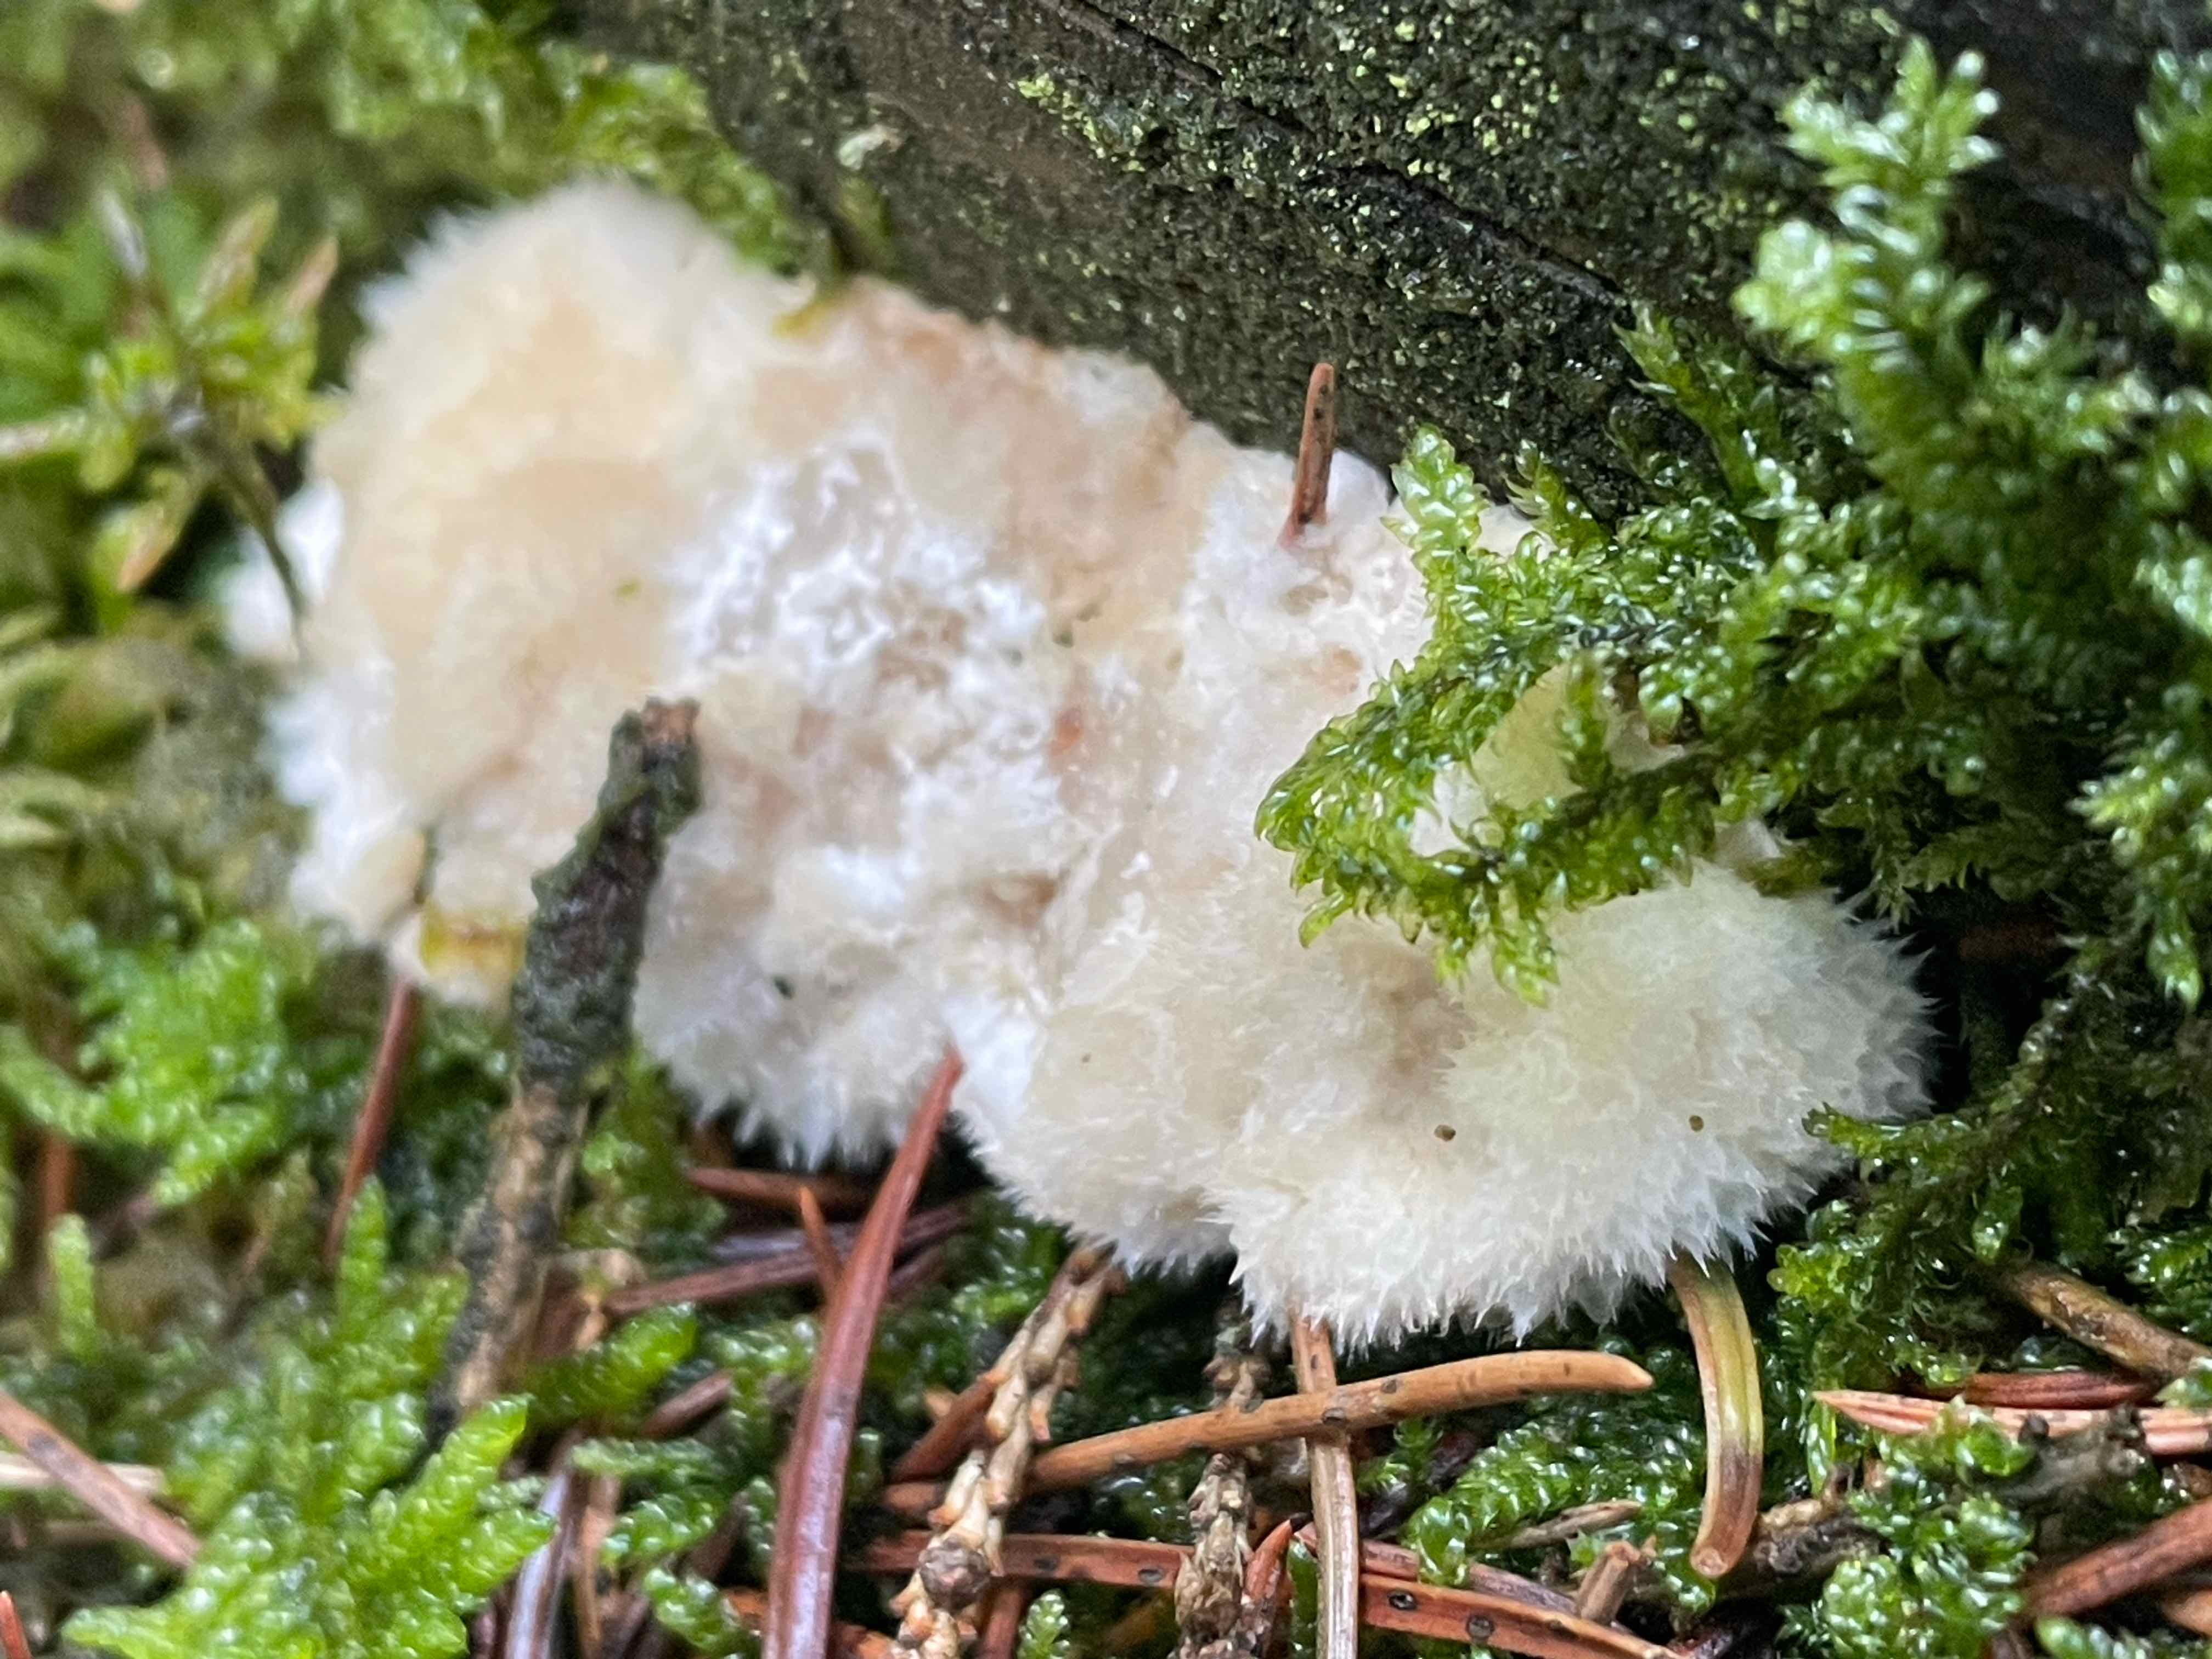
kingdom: Fungi
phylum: Basidiomycota
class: Agaricomycetes
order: Polyporales
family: Dacryobolaceae
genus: Postia
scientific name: Postia ptychogaster
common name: støvende kødporesvamp
